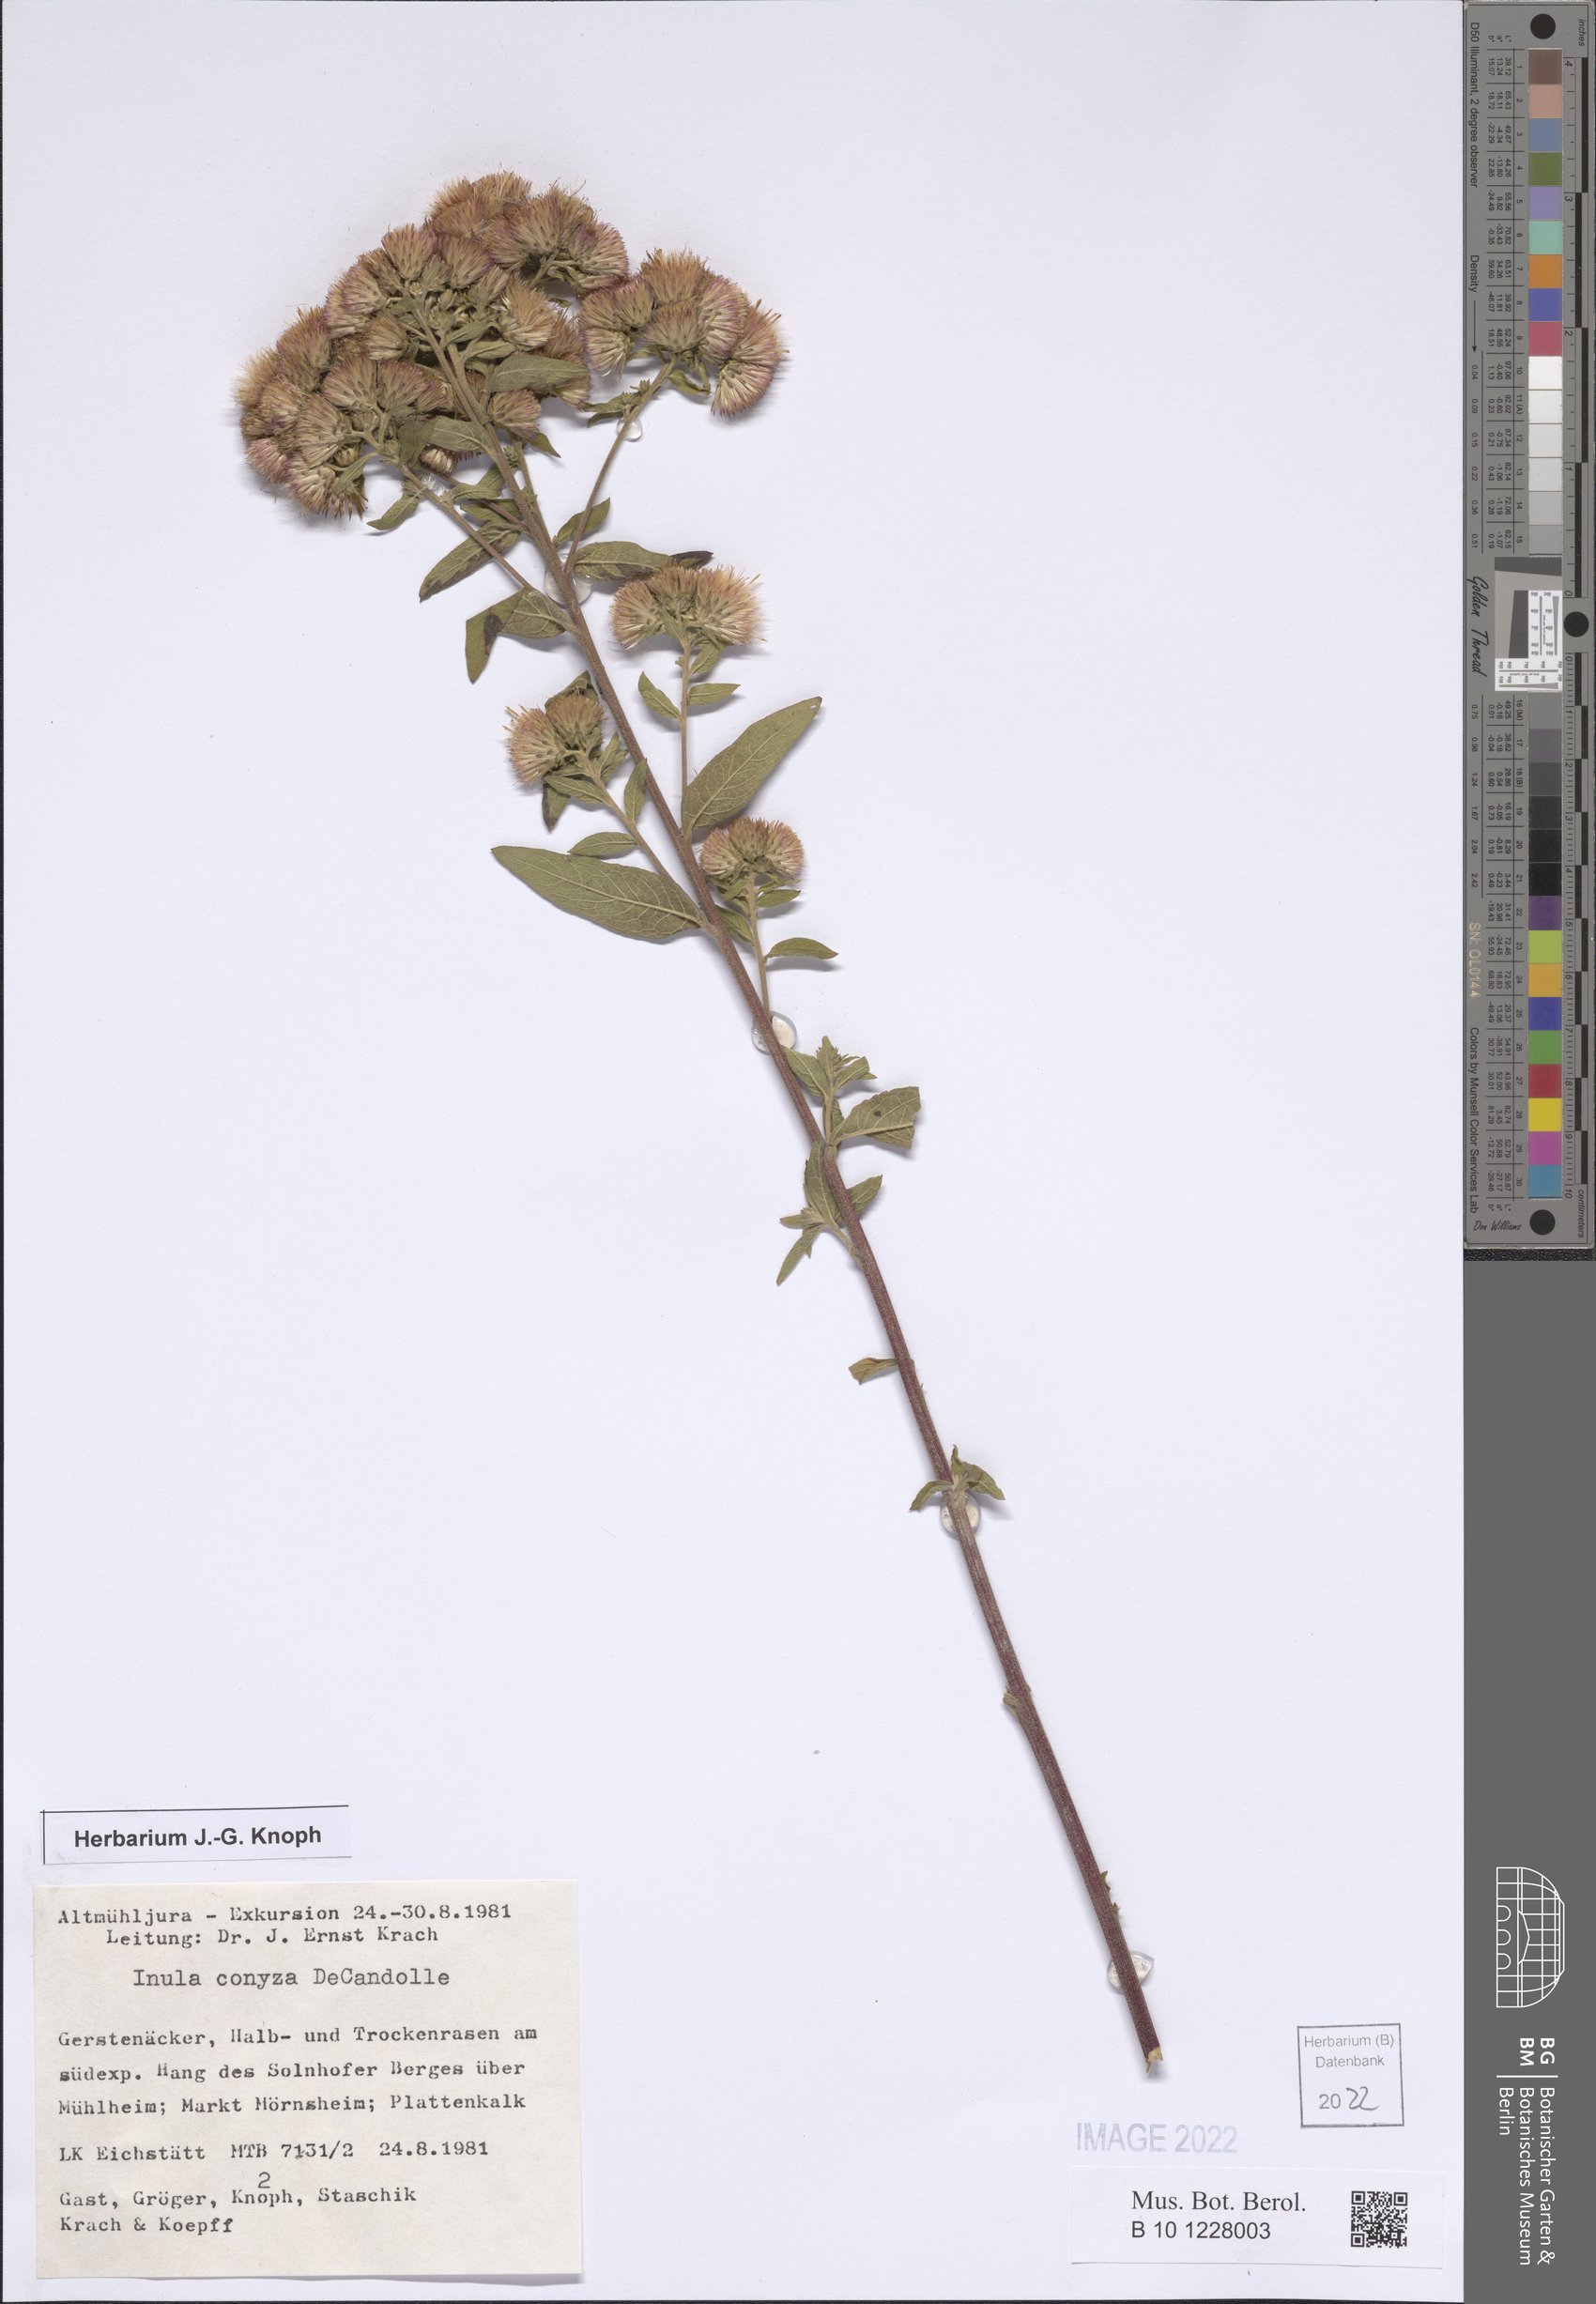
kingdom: Plantae
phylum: Tracheophyta
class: Magnoliopsida
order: Asterales
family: Asteraceae
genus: Pentanema
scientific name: Pentanema squarrosum
